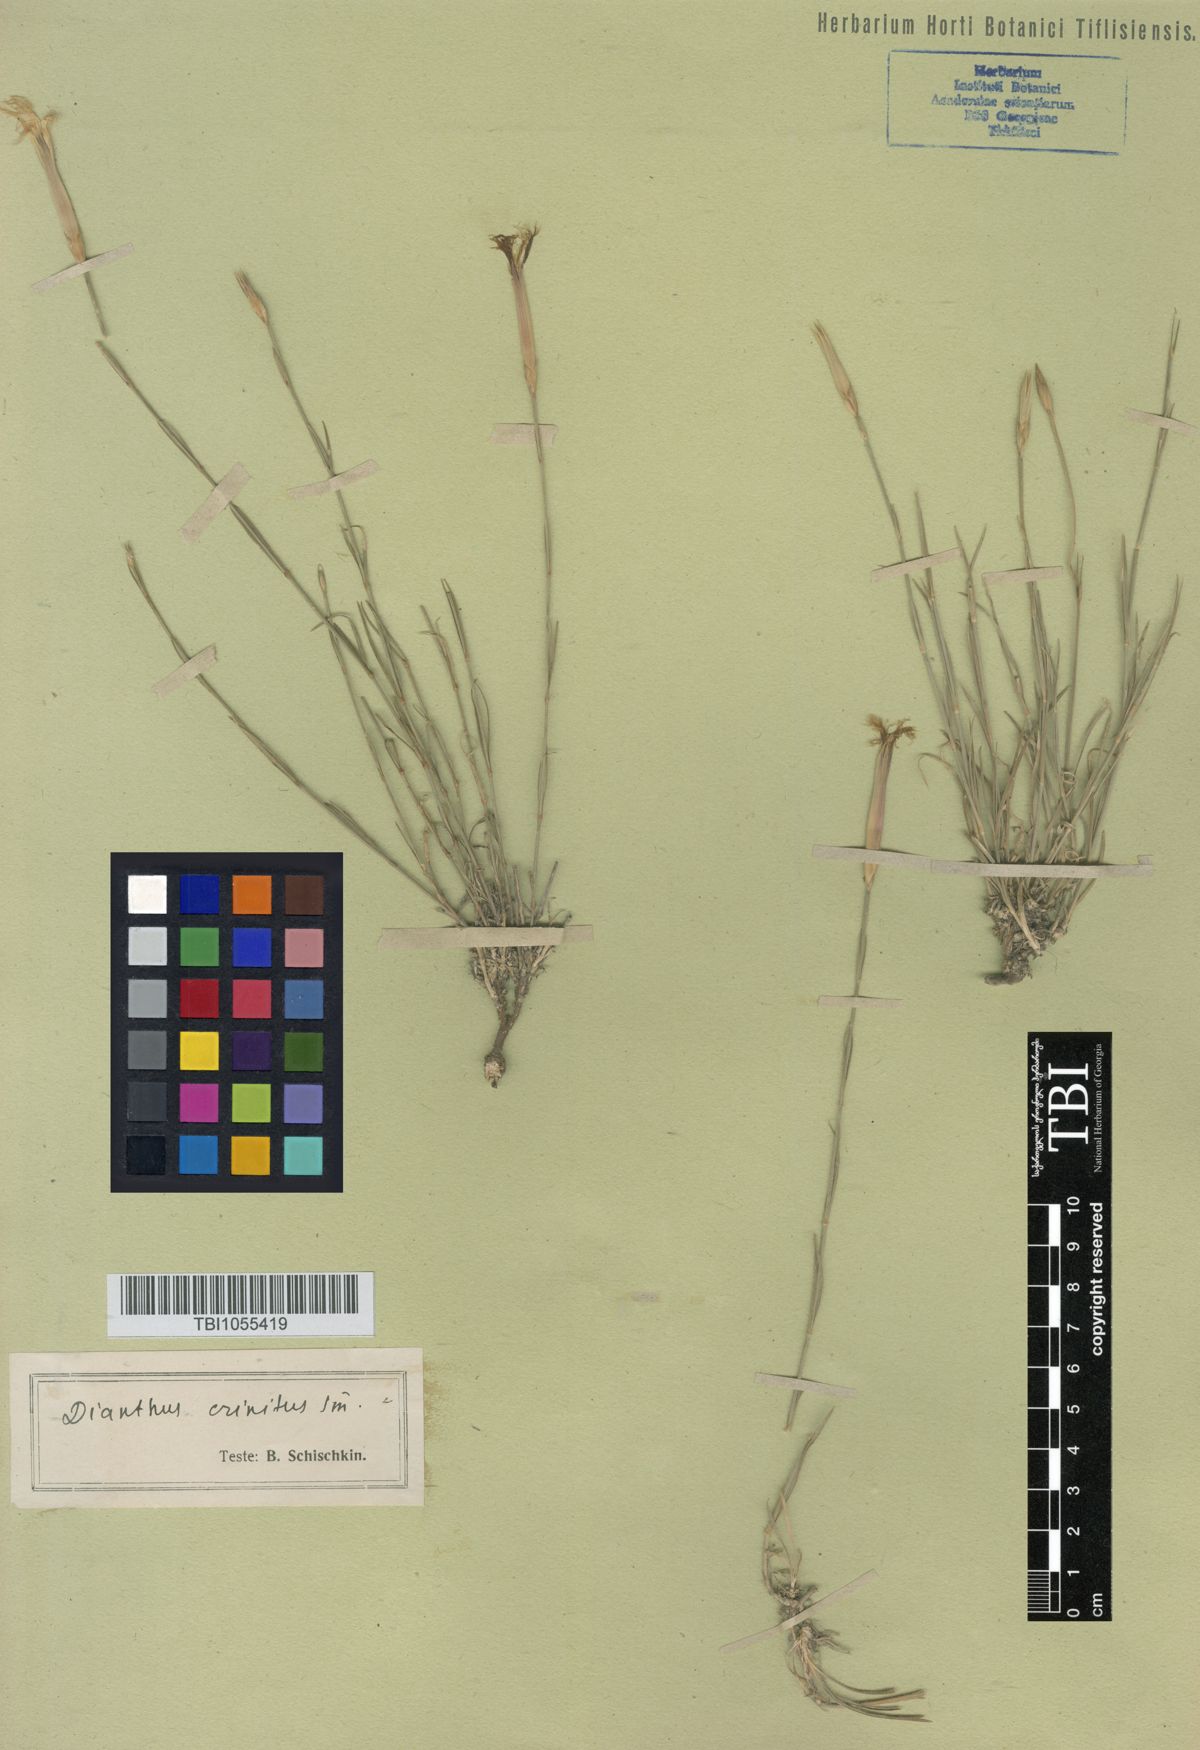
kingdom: Plantae
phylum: Tracheophyta
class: Magnoliopsida
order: Caryophyllales
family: Caryophyllaceae
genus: Dianthus
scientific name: Dianthus crinitus
